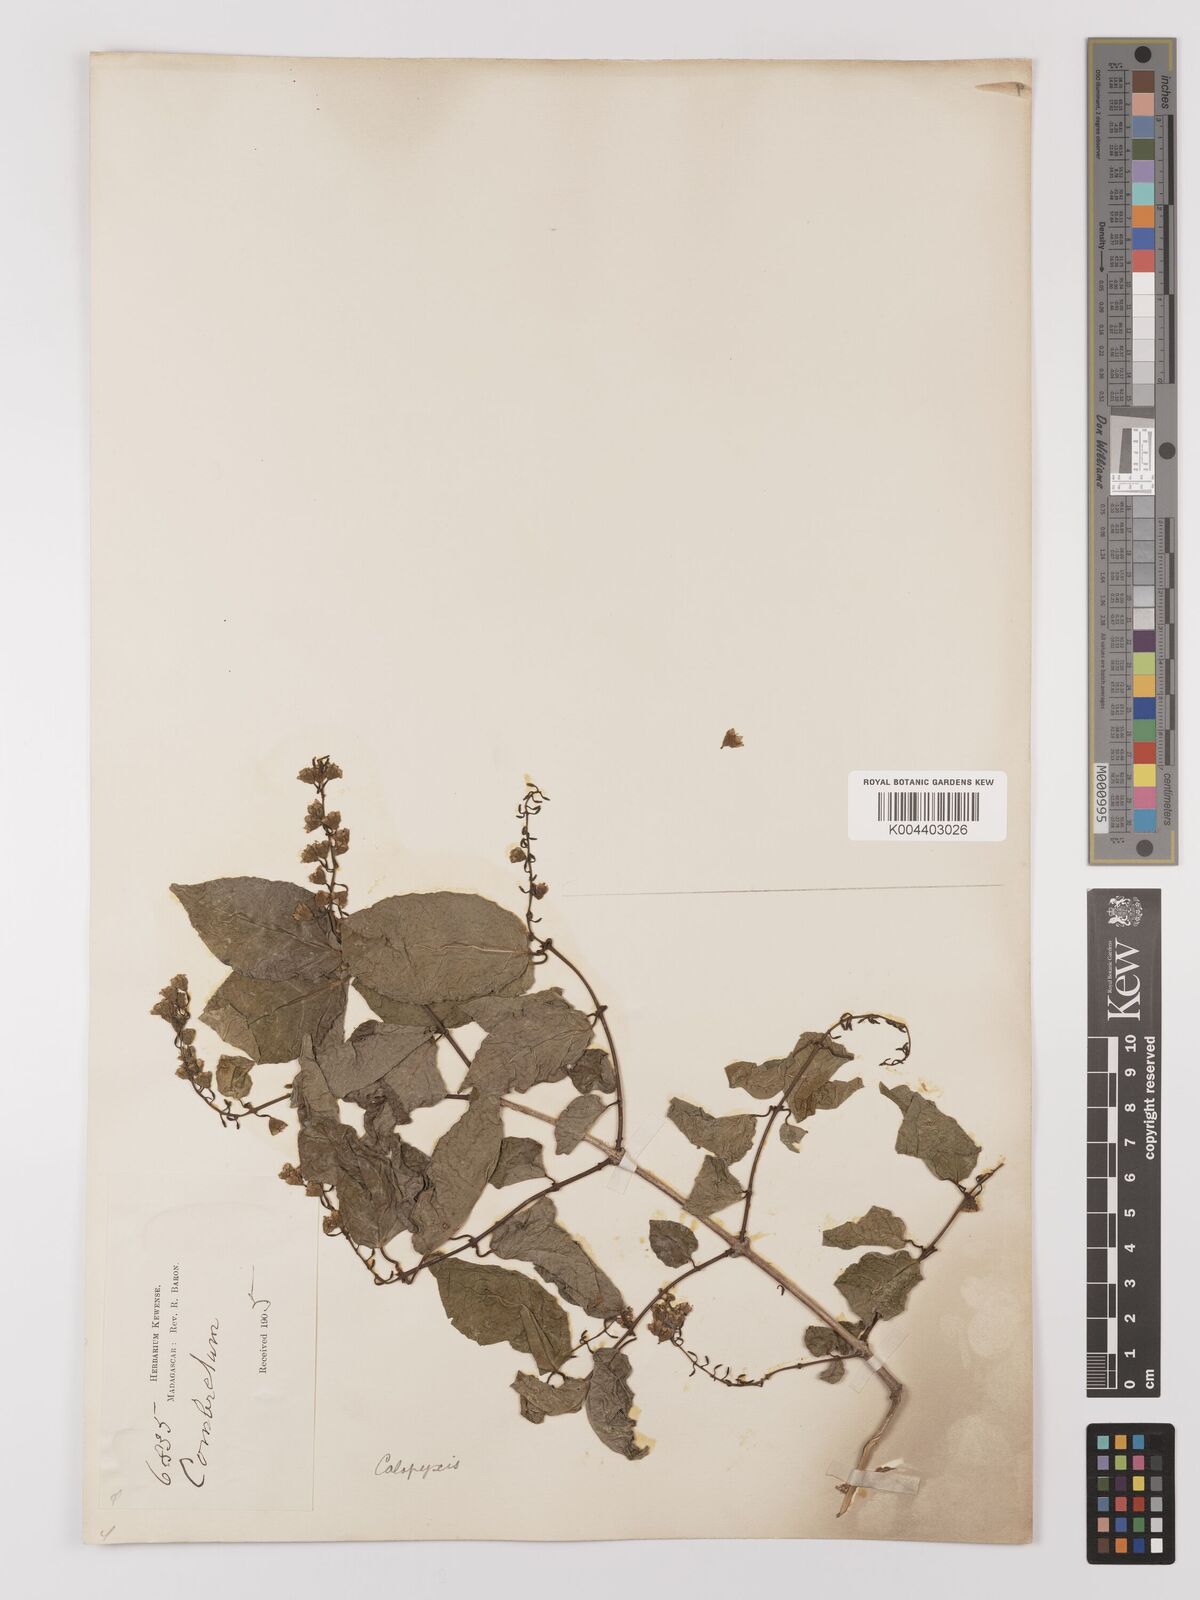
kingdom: Plantae
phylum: Tracheophyta
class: Magnoliopsida
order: Myrtales
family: Combretaceae
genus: Combretum
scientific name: Combretum
